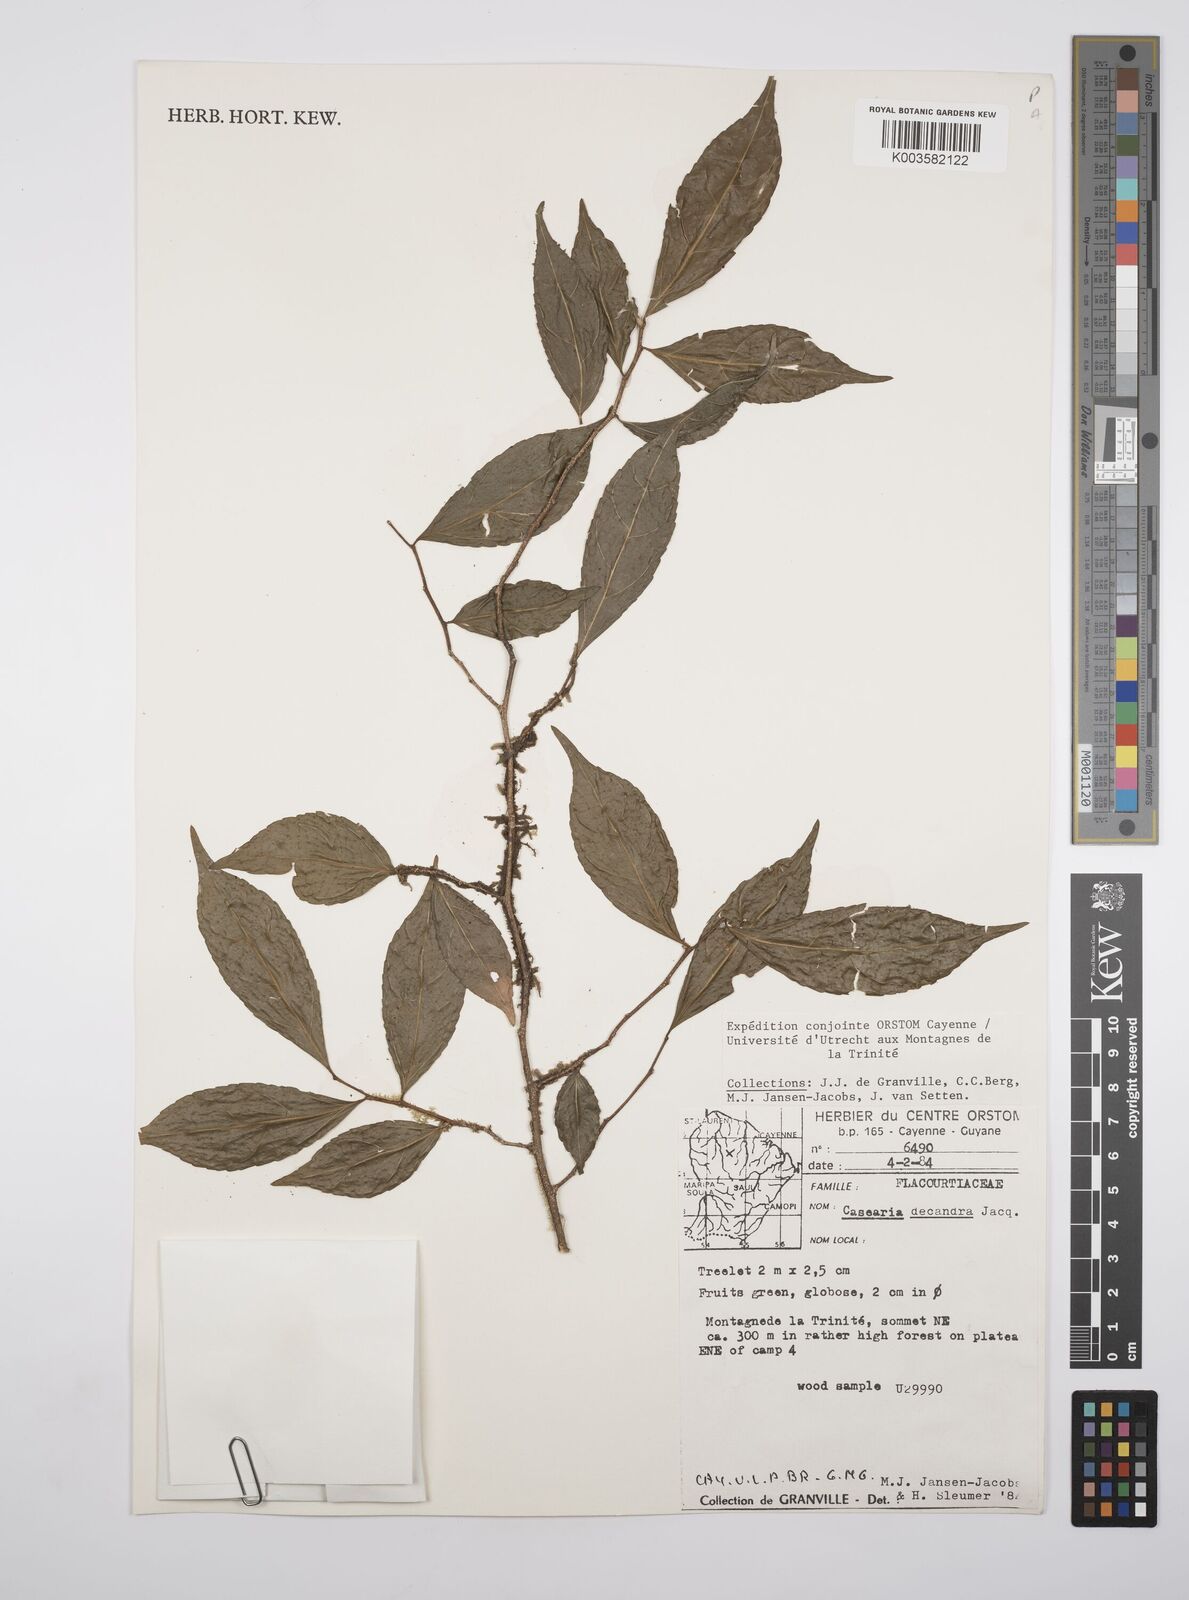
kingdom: Plantae
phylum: Tracheophyta
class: Magnoliopsida
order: Malpighiales
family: Salicaceae
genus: Casearia
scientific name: Casearia decandra
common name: Crack open
